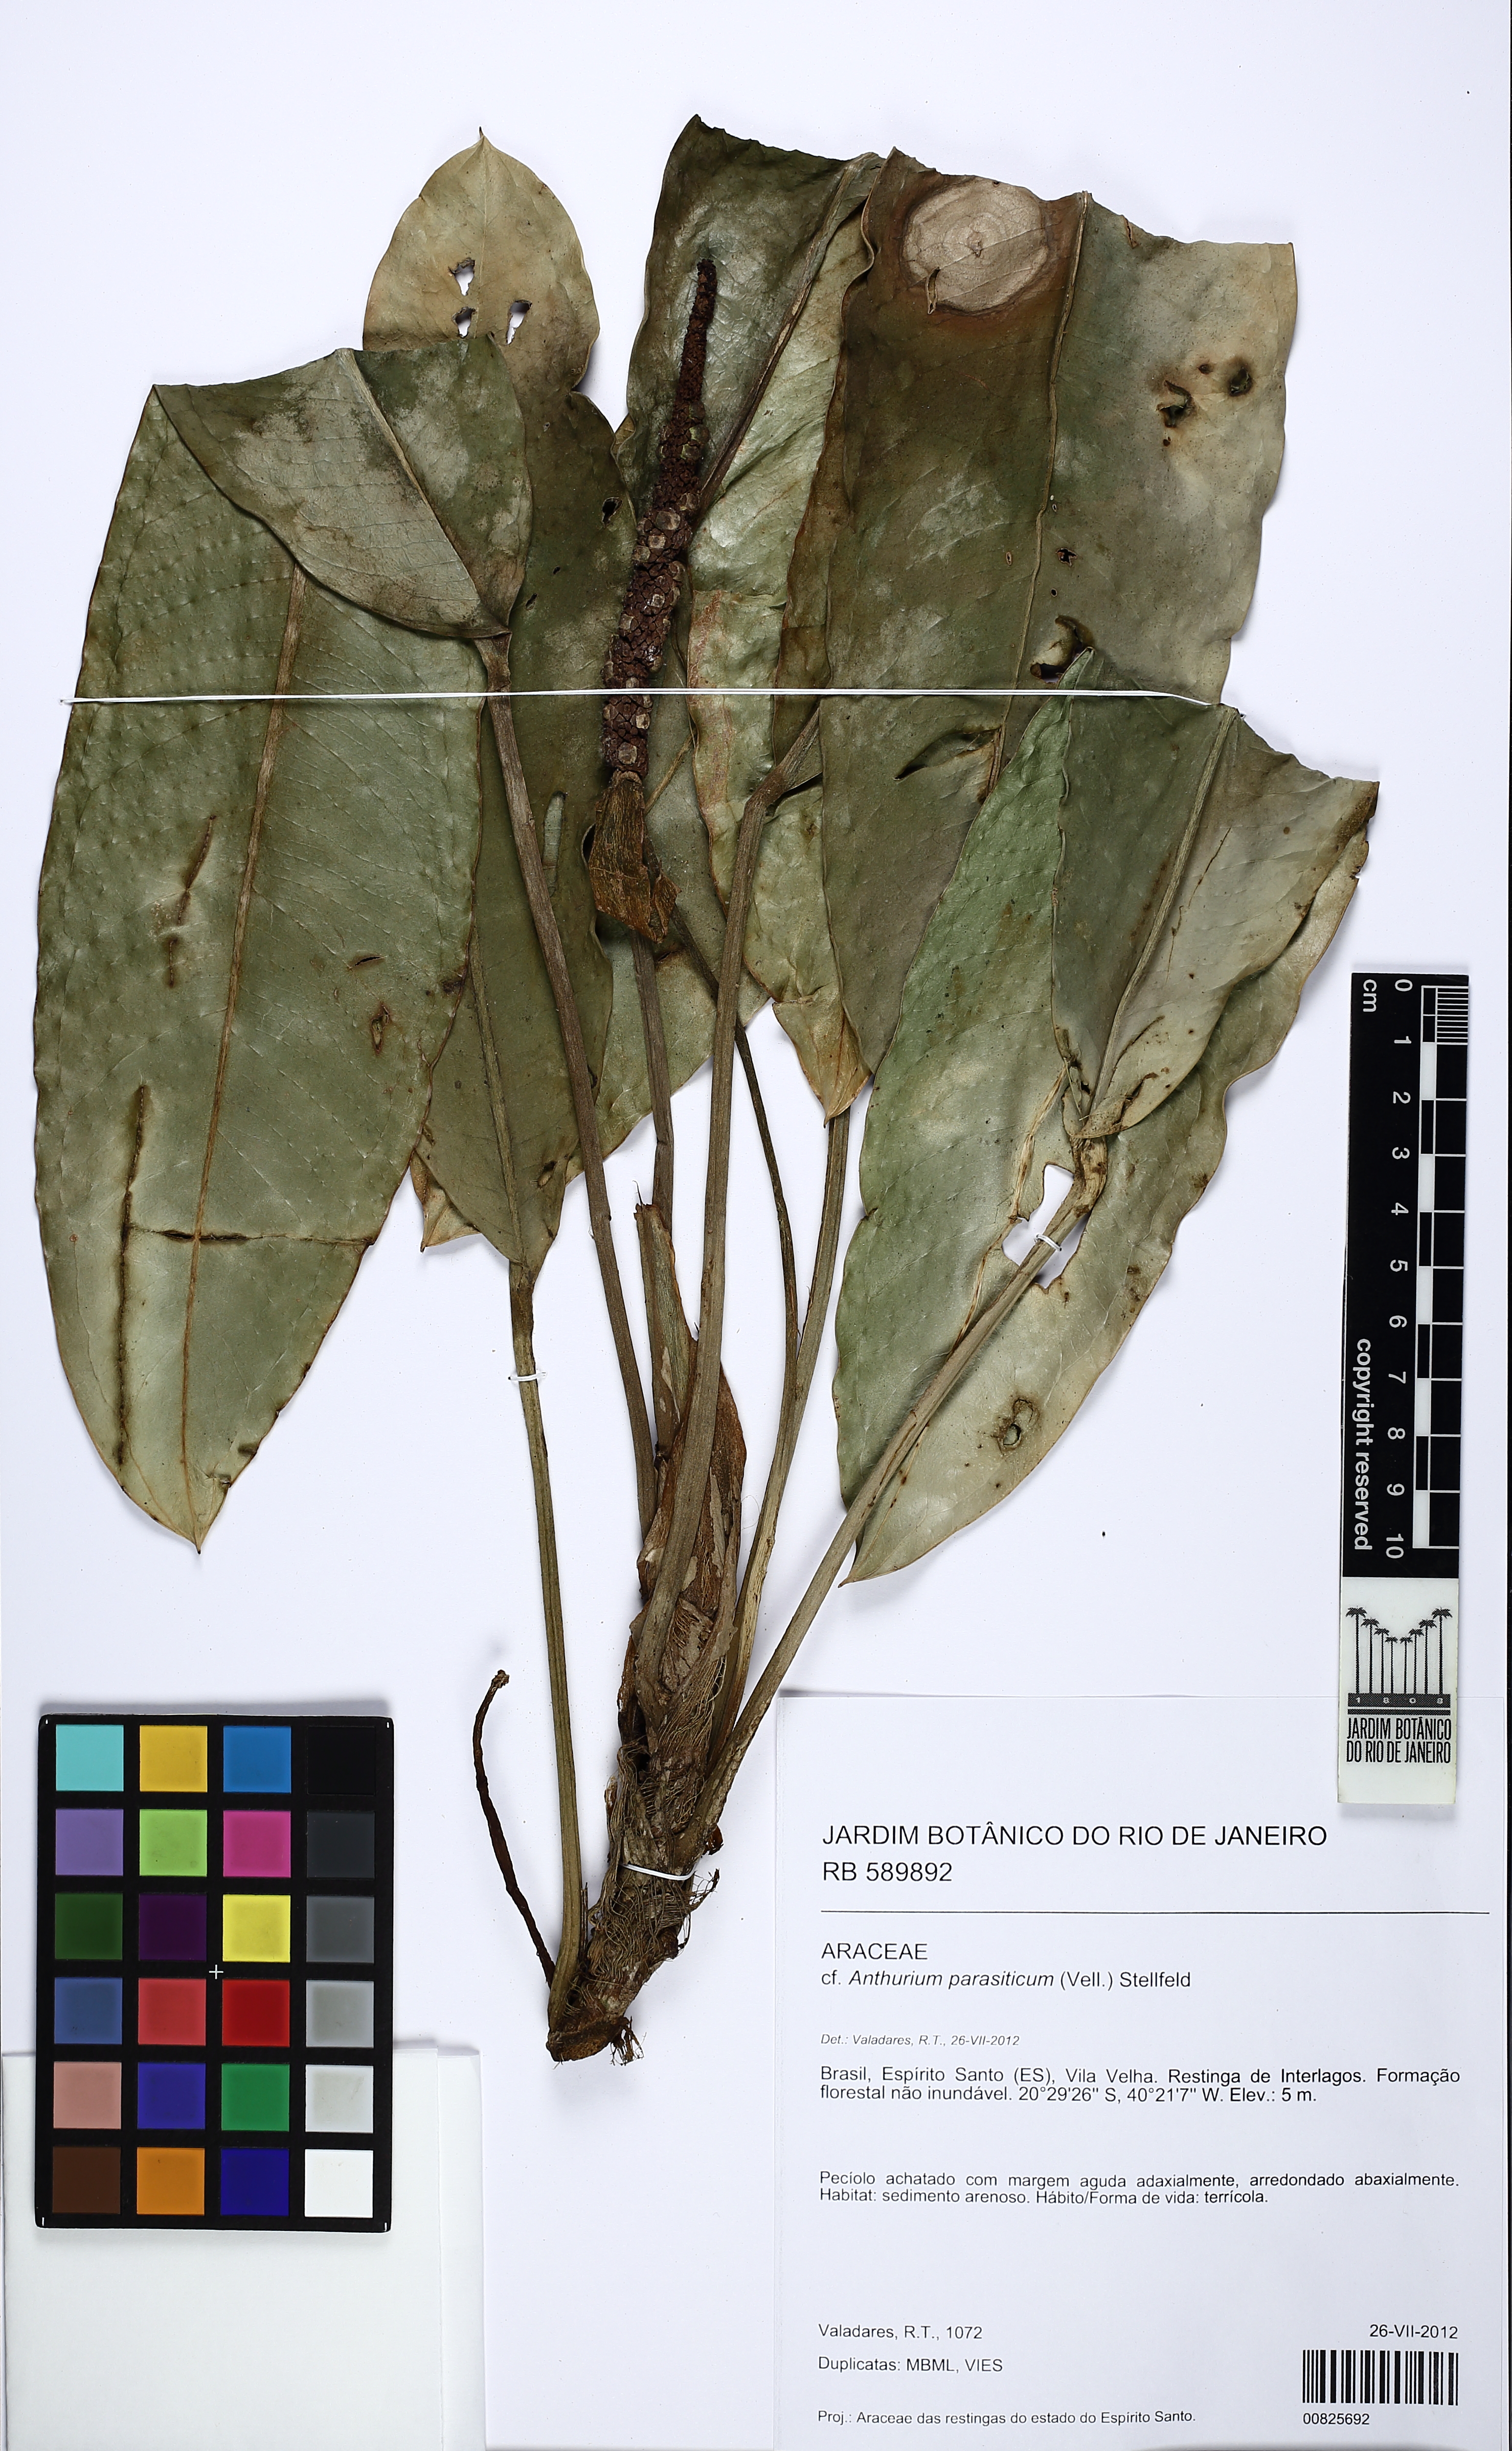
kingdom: Plantae
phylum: Tracheophyta
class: Liliopsida
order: Alismatales
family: Araceae
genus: Anthurium
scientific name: Anthurium parasiticum
